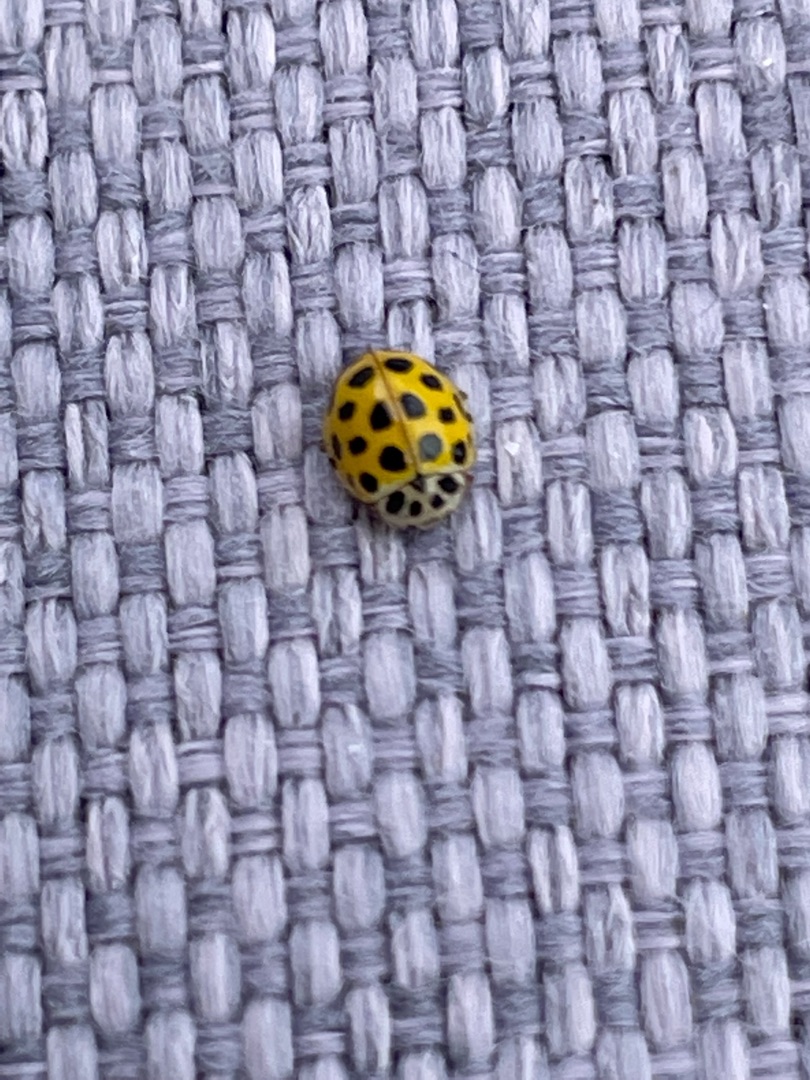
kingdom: Animalia
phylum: Arthropoda
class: Insecta
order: Coleoptera
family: Coccinellidae
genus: Psyllobora
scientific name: Psyllobora vigintiduopunctata
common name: Toogtyveplettet mariehøne
